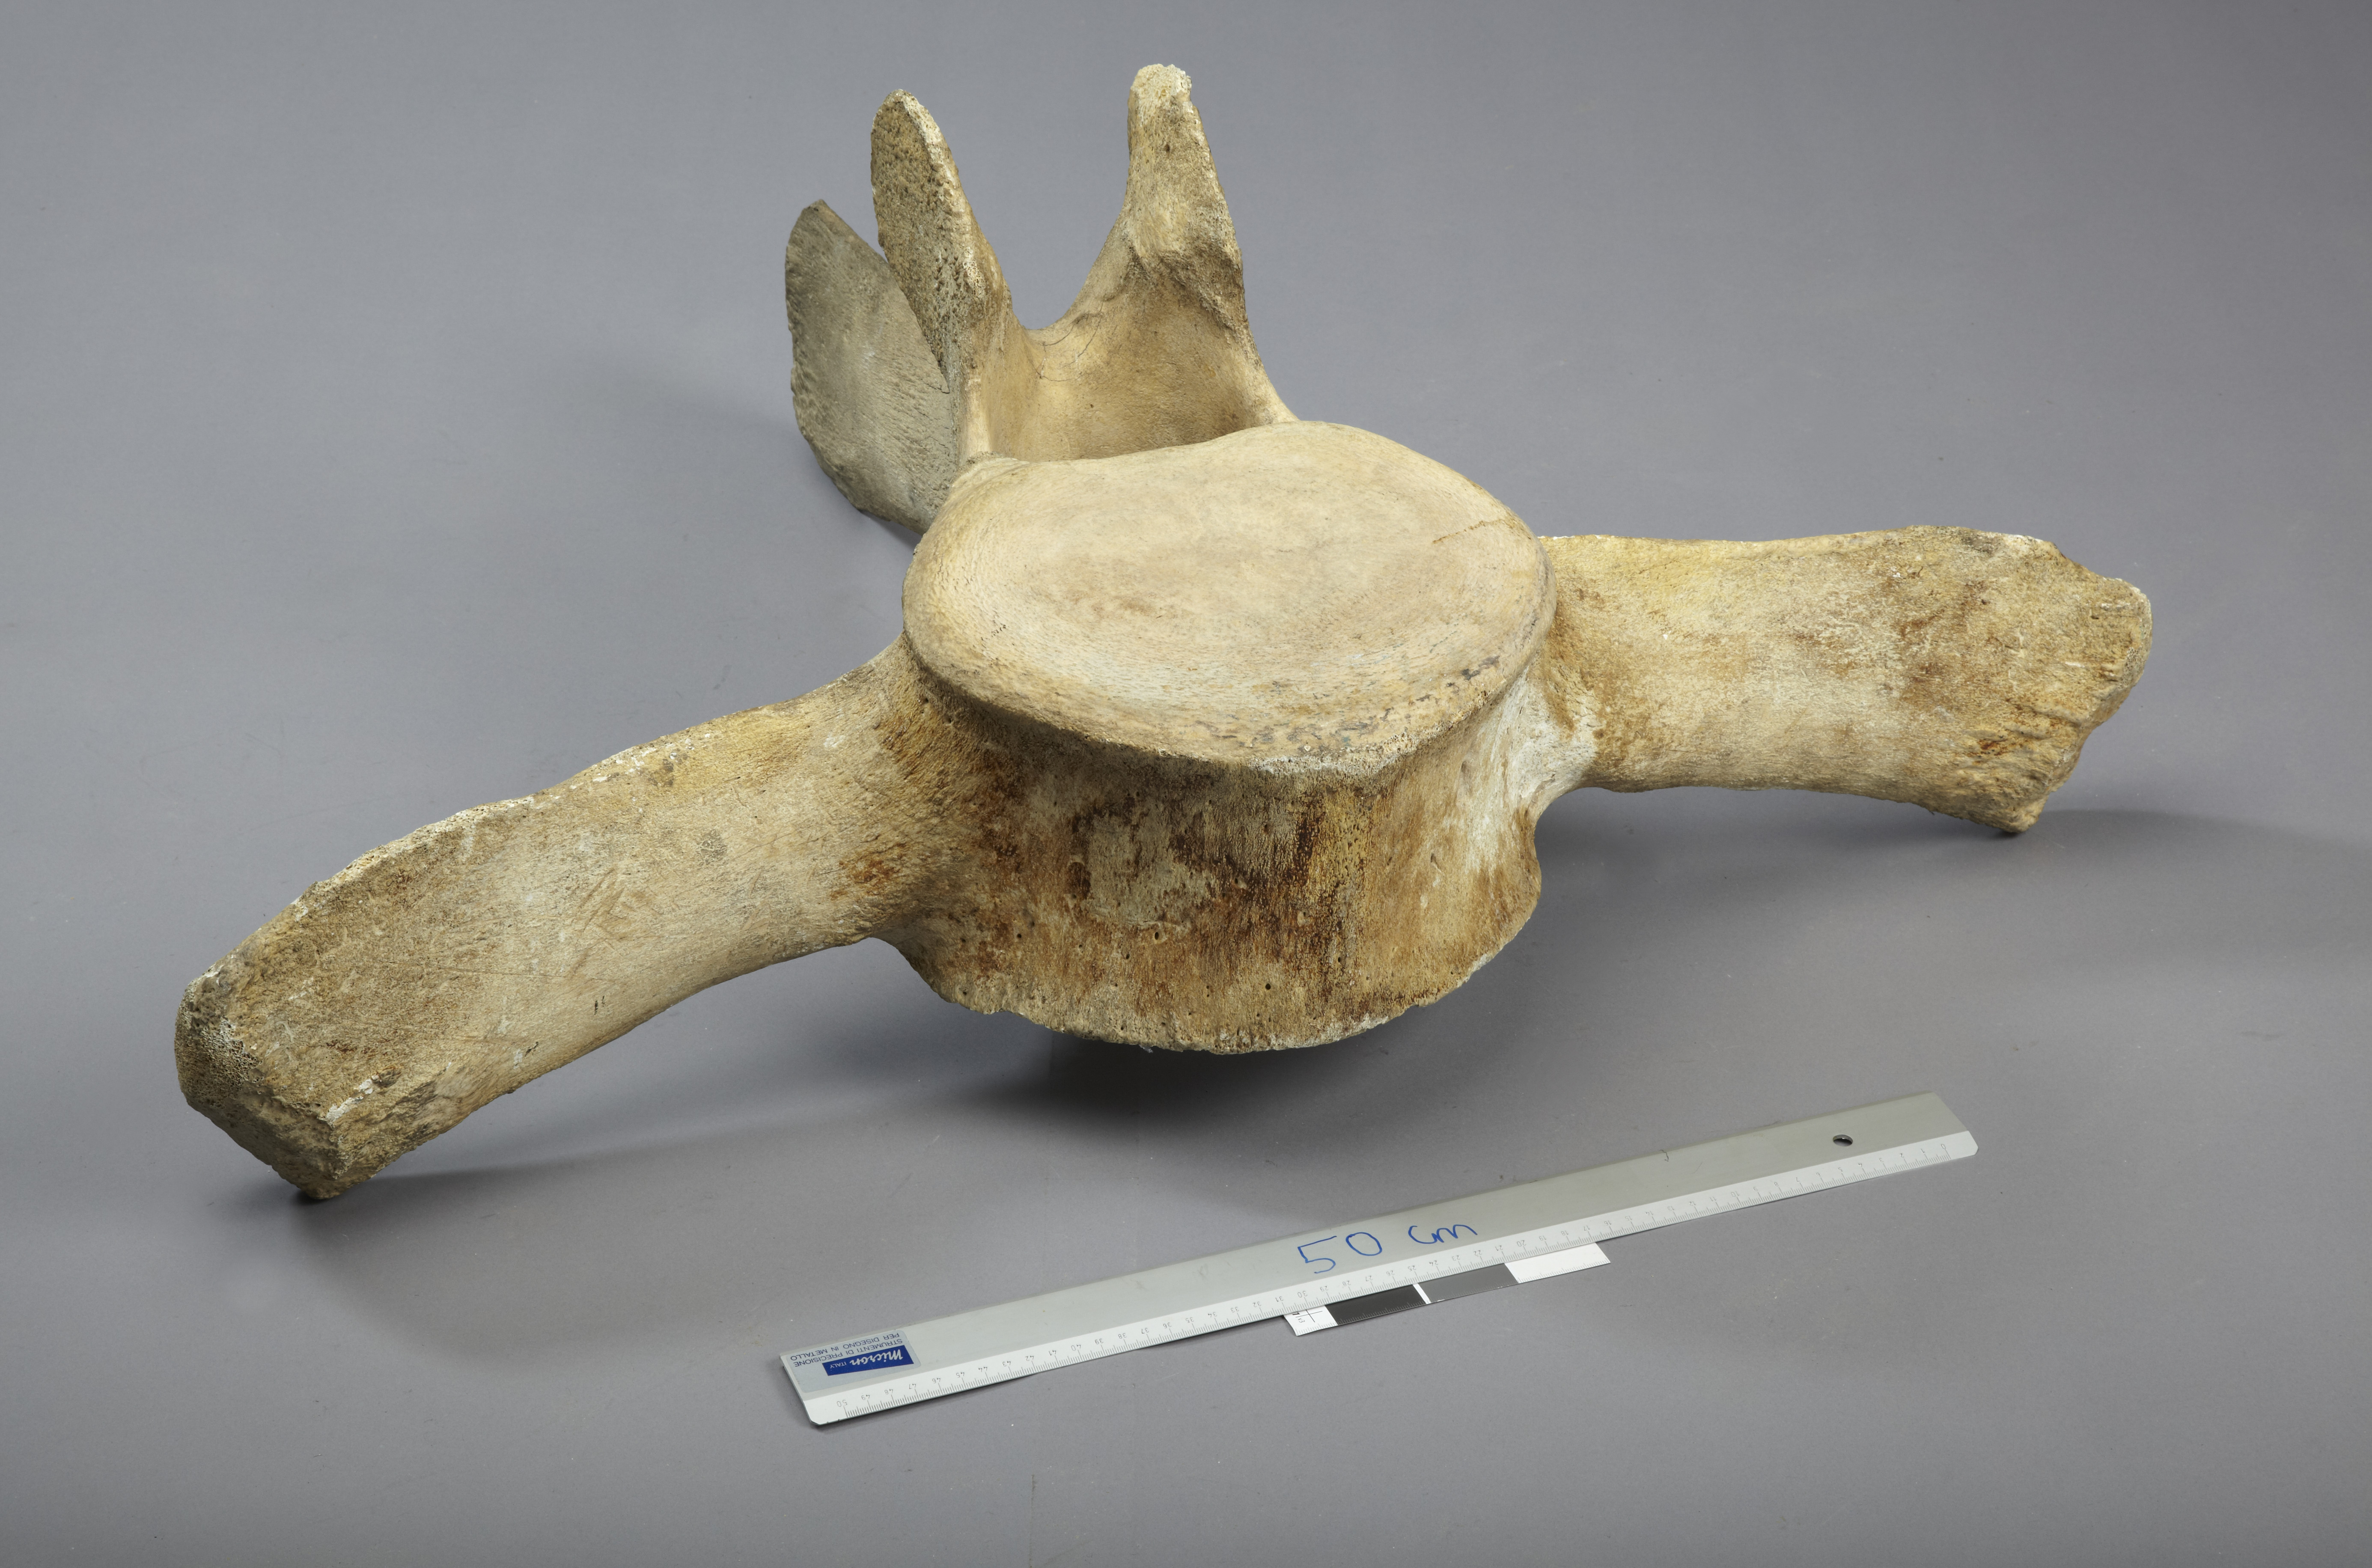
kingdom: Animalia
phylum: Chordata
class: Mammalia
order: Cetacea
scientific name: Cetacea
